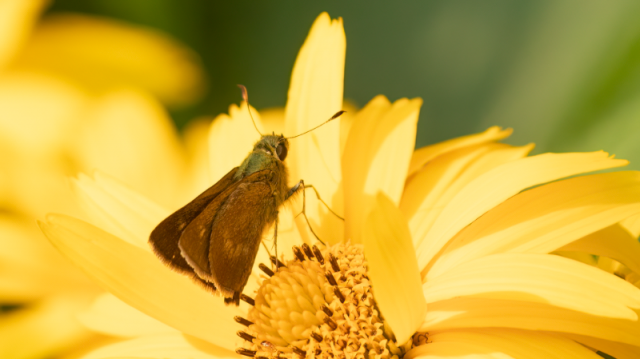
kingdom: Animalia
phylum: Arthropoda
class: Insecta
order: Lepidoptera
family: Hesperiidae
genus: Polites
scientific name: Polites egeremet
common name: Northern Broken-Dash
